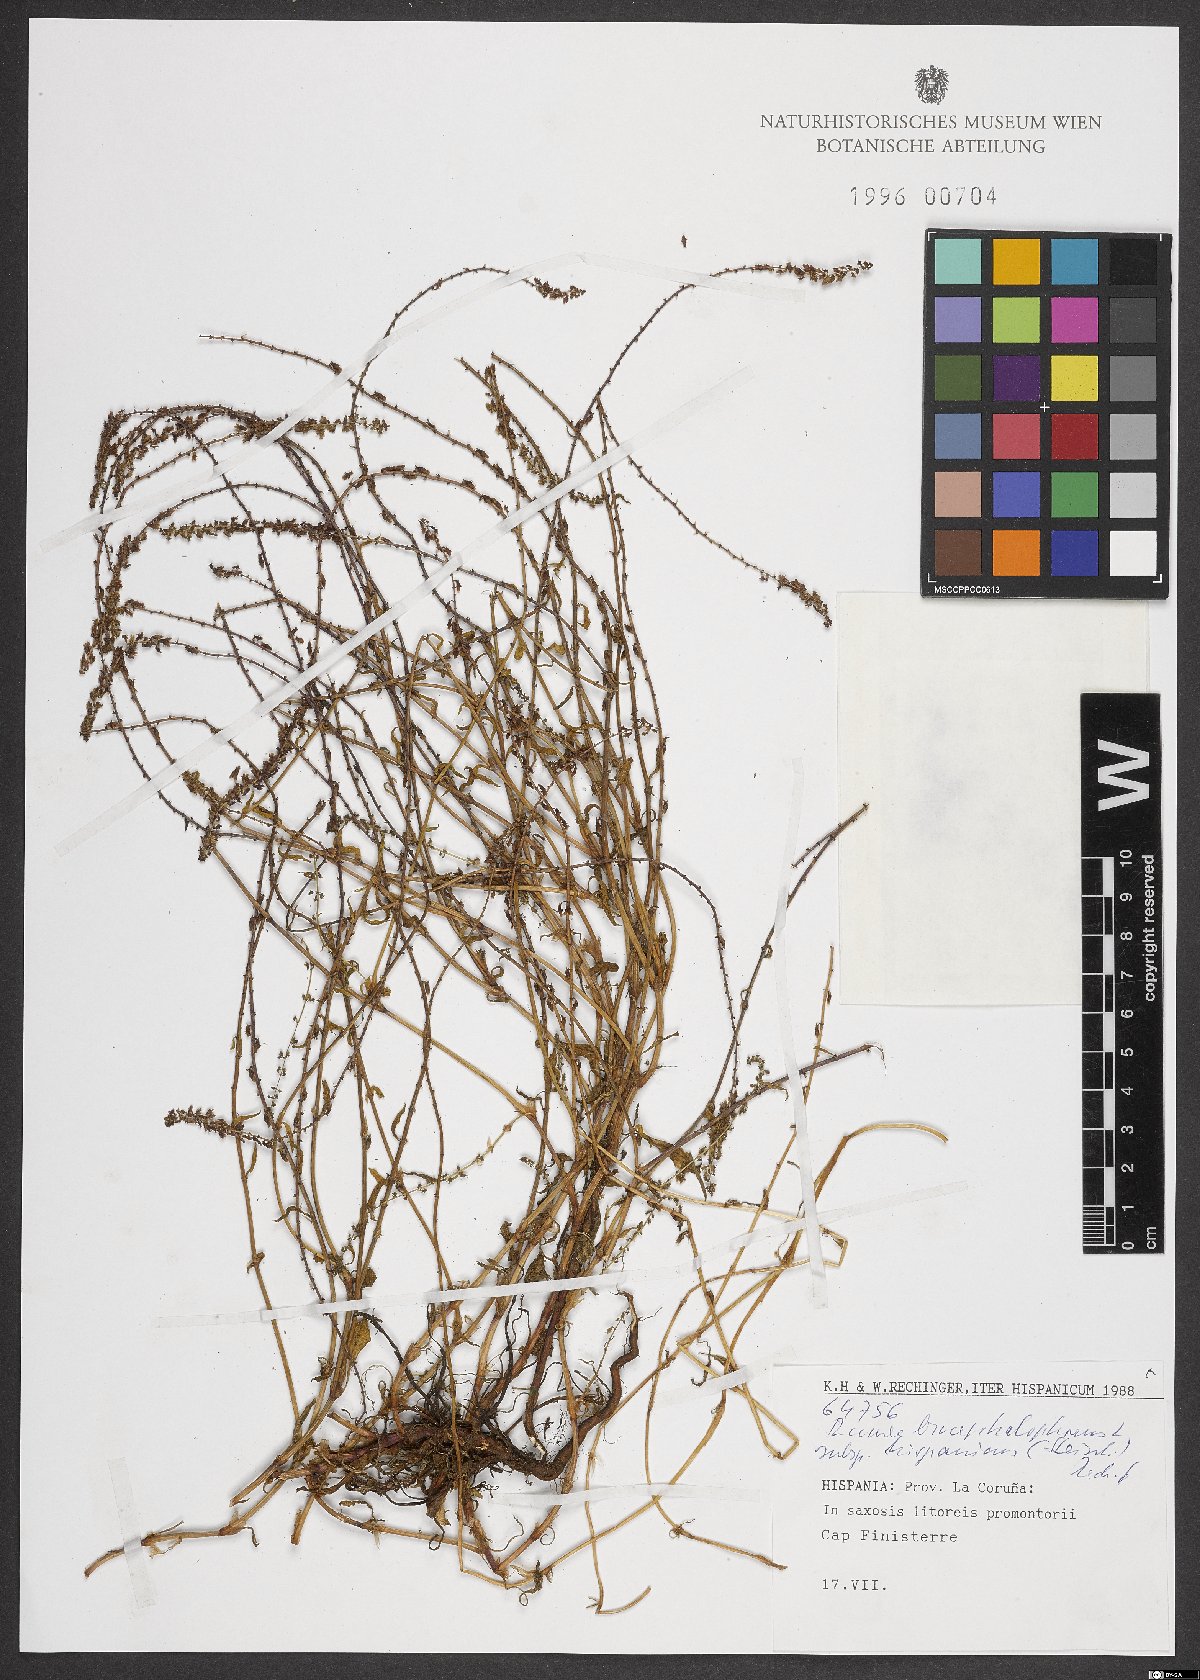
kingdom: Plantae
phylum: Tracheophyta
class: Magnoliopsida
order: Caryophyllales
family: Polygonaceae
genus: Rumex
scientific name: Rumex bucephalophorus
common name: Red dock
